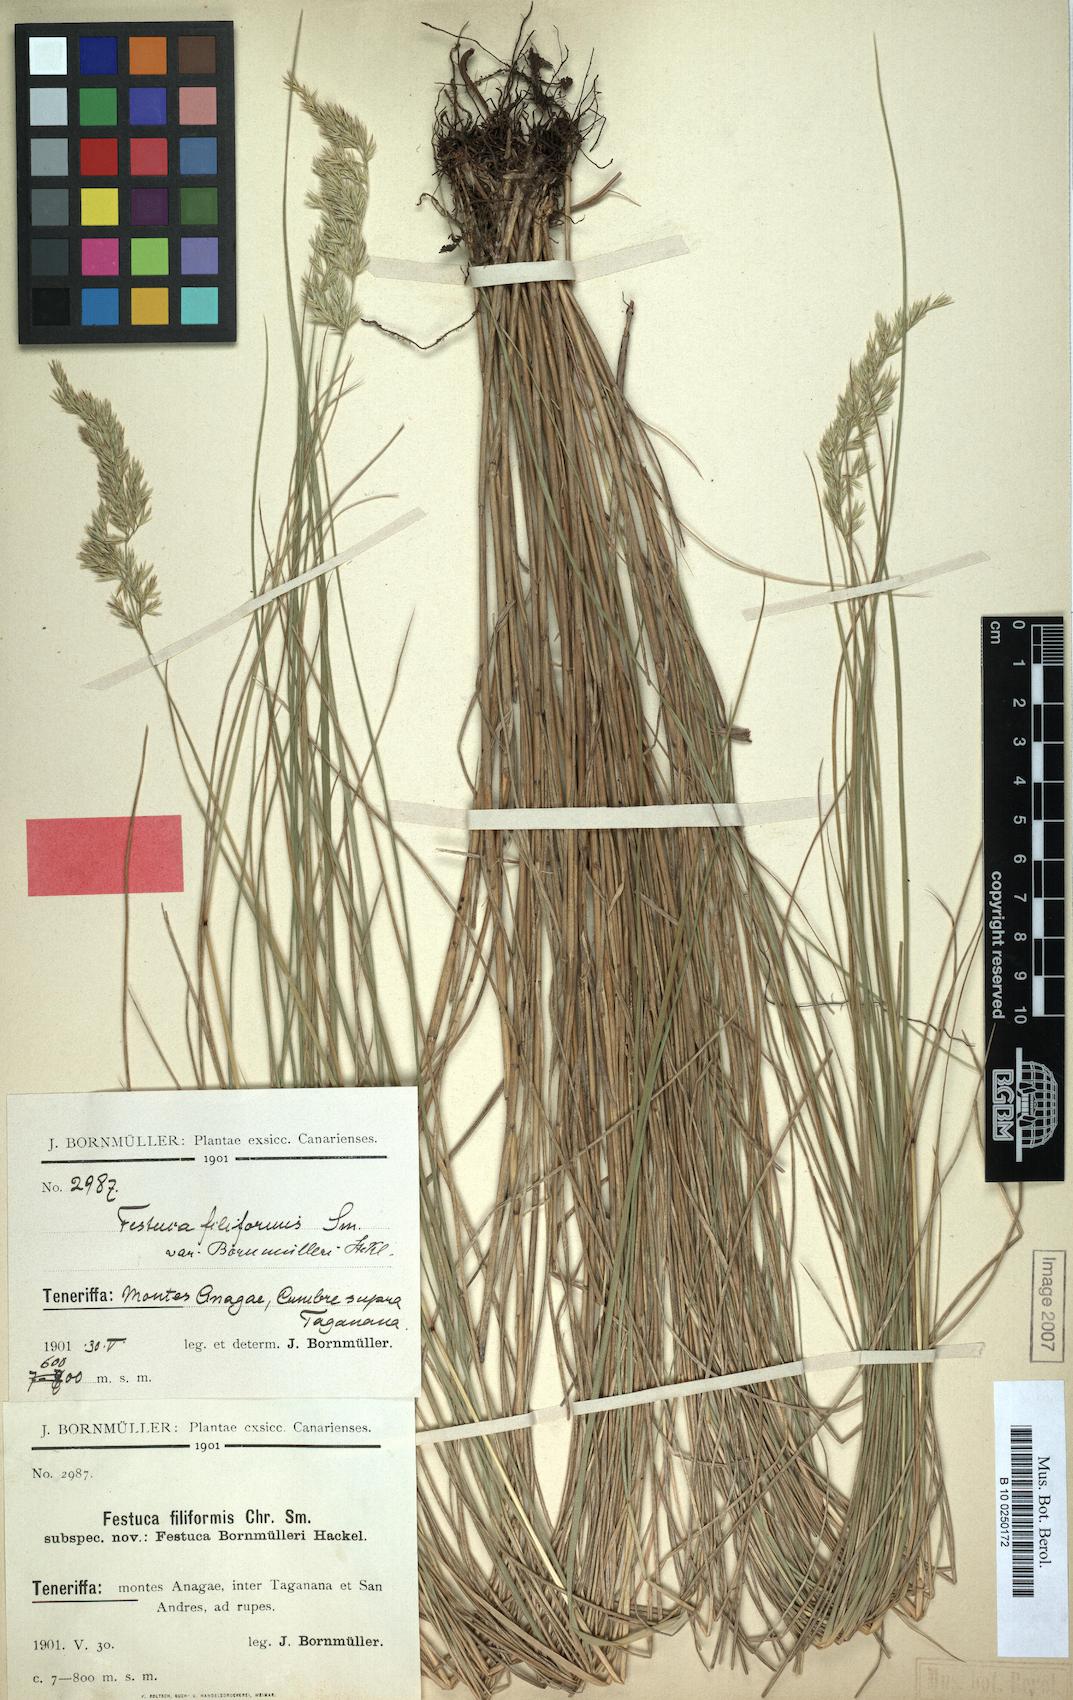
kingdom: Plantae
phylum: Tracheophyta
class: Liliopsida
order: Poales
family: Poaceae
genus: Festuca
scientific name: Festuca agustini
